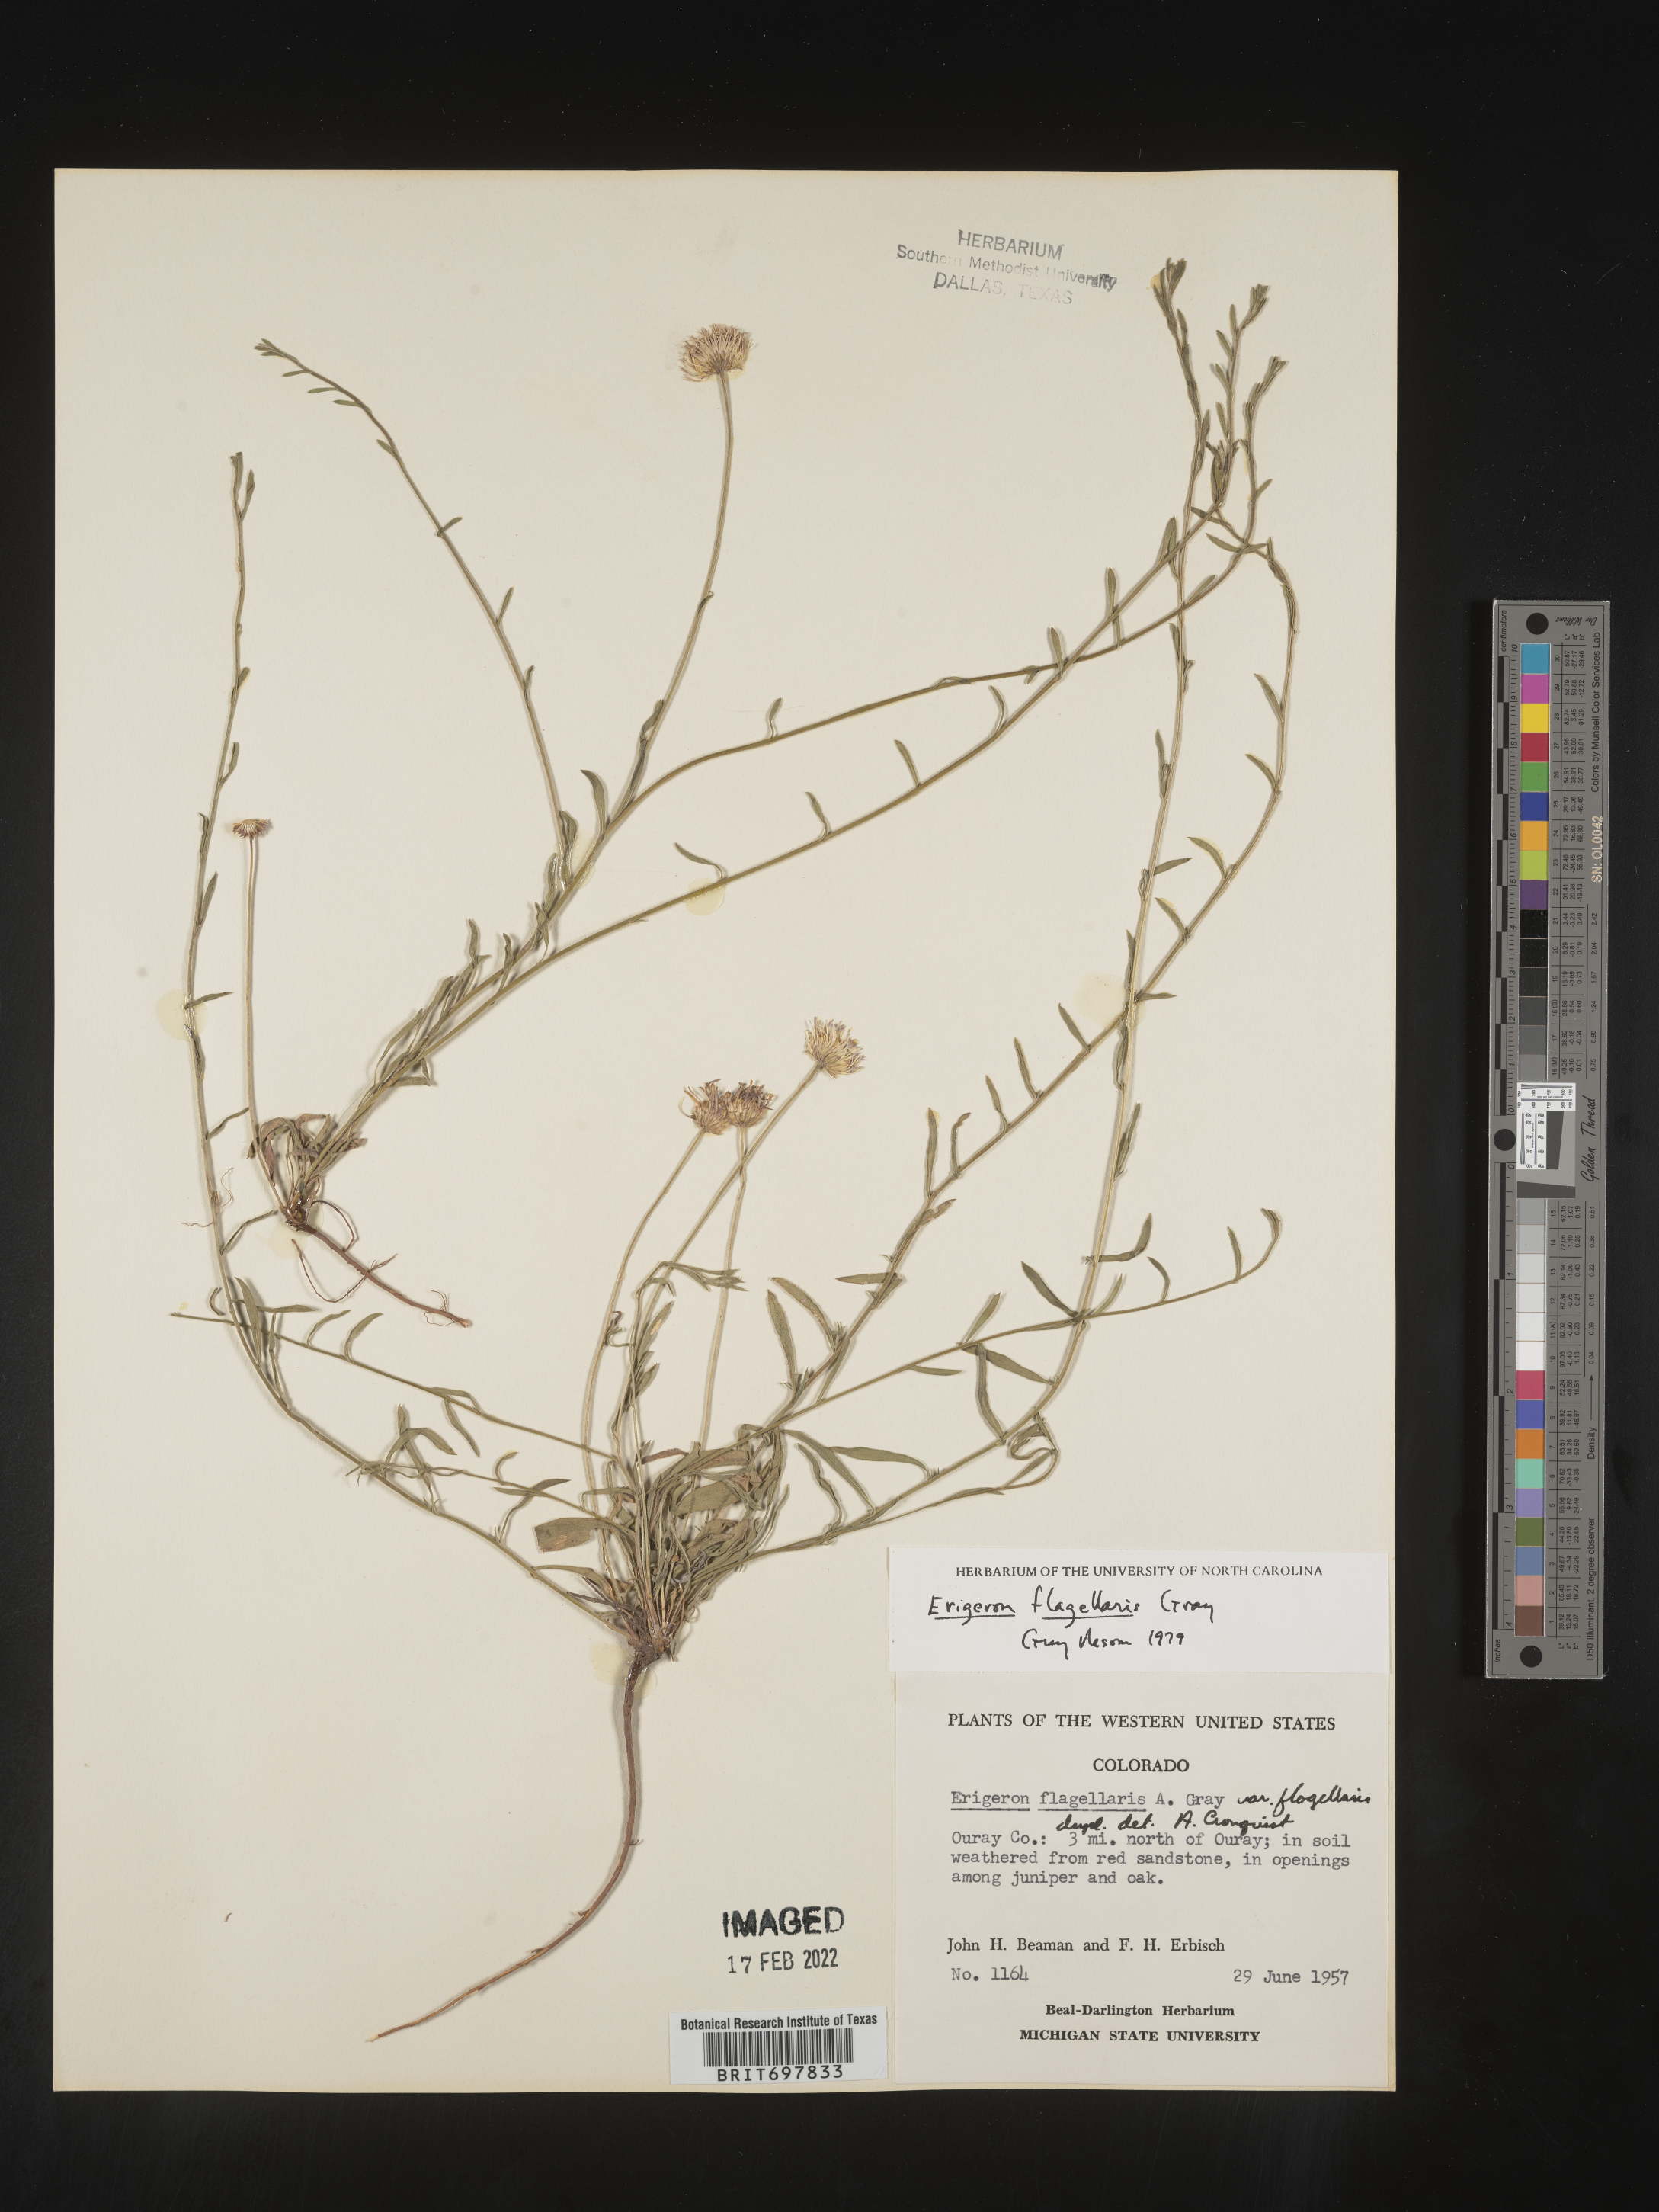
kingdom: Plantae
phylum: Tracheophyta
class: Magnoliopsida
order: Asterales
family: Asteraceae
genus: Erigeron
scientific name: Erigeron flagellaris
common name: Running fleabane
